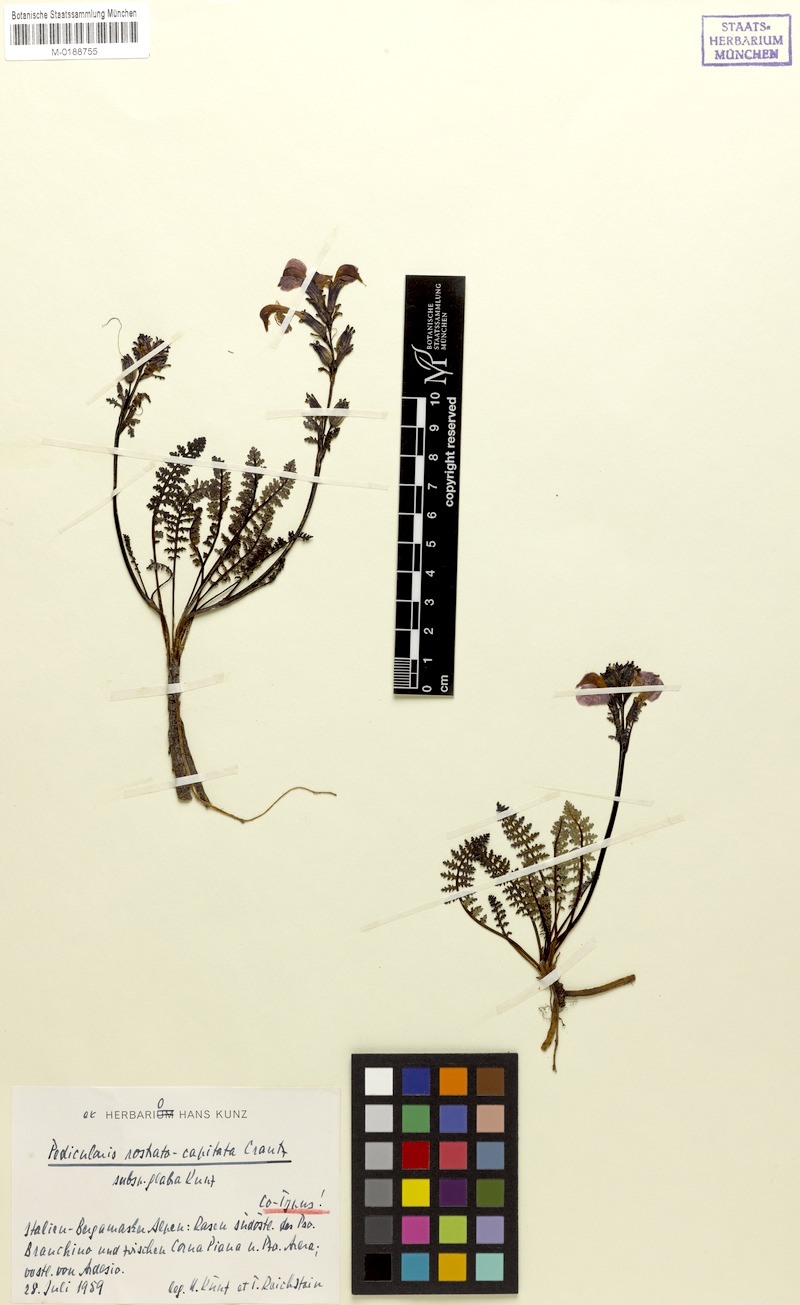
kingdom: Plantae
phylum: Tracheophyta
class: Magnoliopsida
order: Lamiales
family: Orobanchaceae
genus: Pedicularis
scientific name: Pedicularis rostratocapitata
